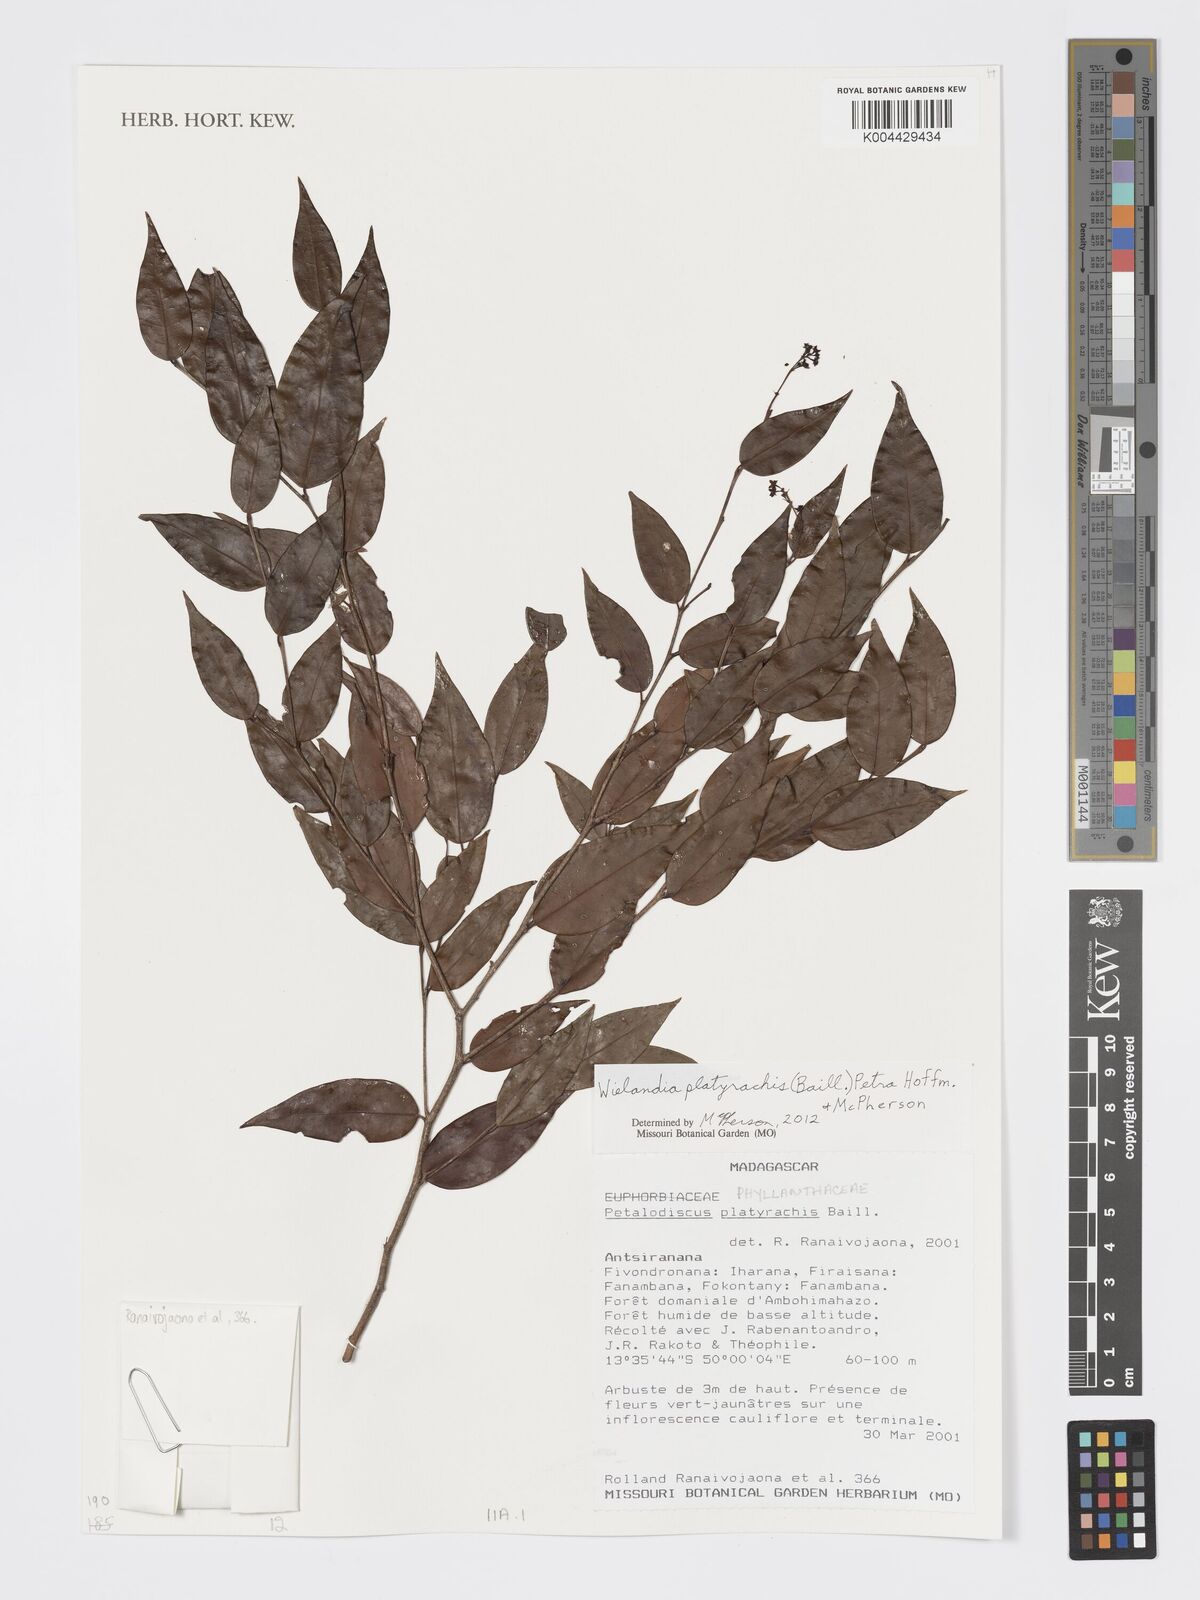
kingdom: Plantae
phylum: Tracheophyta
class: Magnoliopsida
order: Malpighiales
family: Phyllanthaceae
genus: Wielandia
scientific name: Wielandia platyrachis
